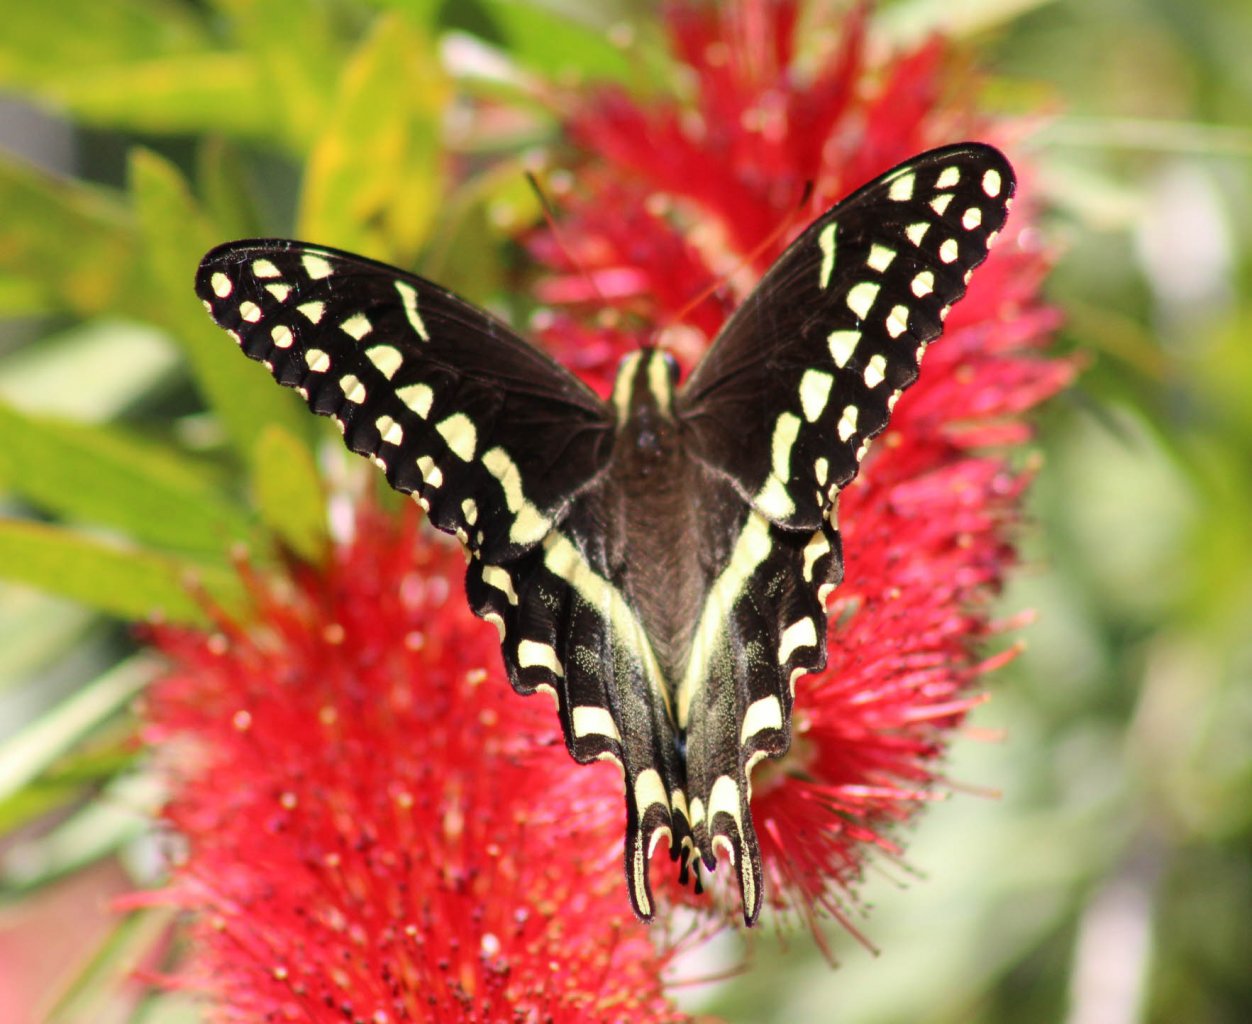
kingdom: Animalia
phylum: Arthropoda
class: Insecta
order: Lepidoptera
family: Papilionidae
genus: Pterourus
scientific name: Pterourus palamedes
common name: Palamedes Swallowtail
